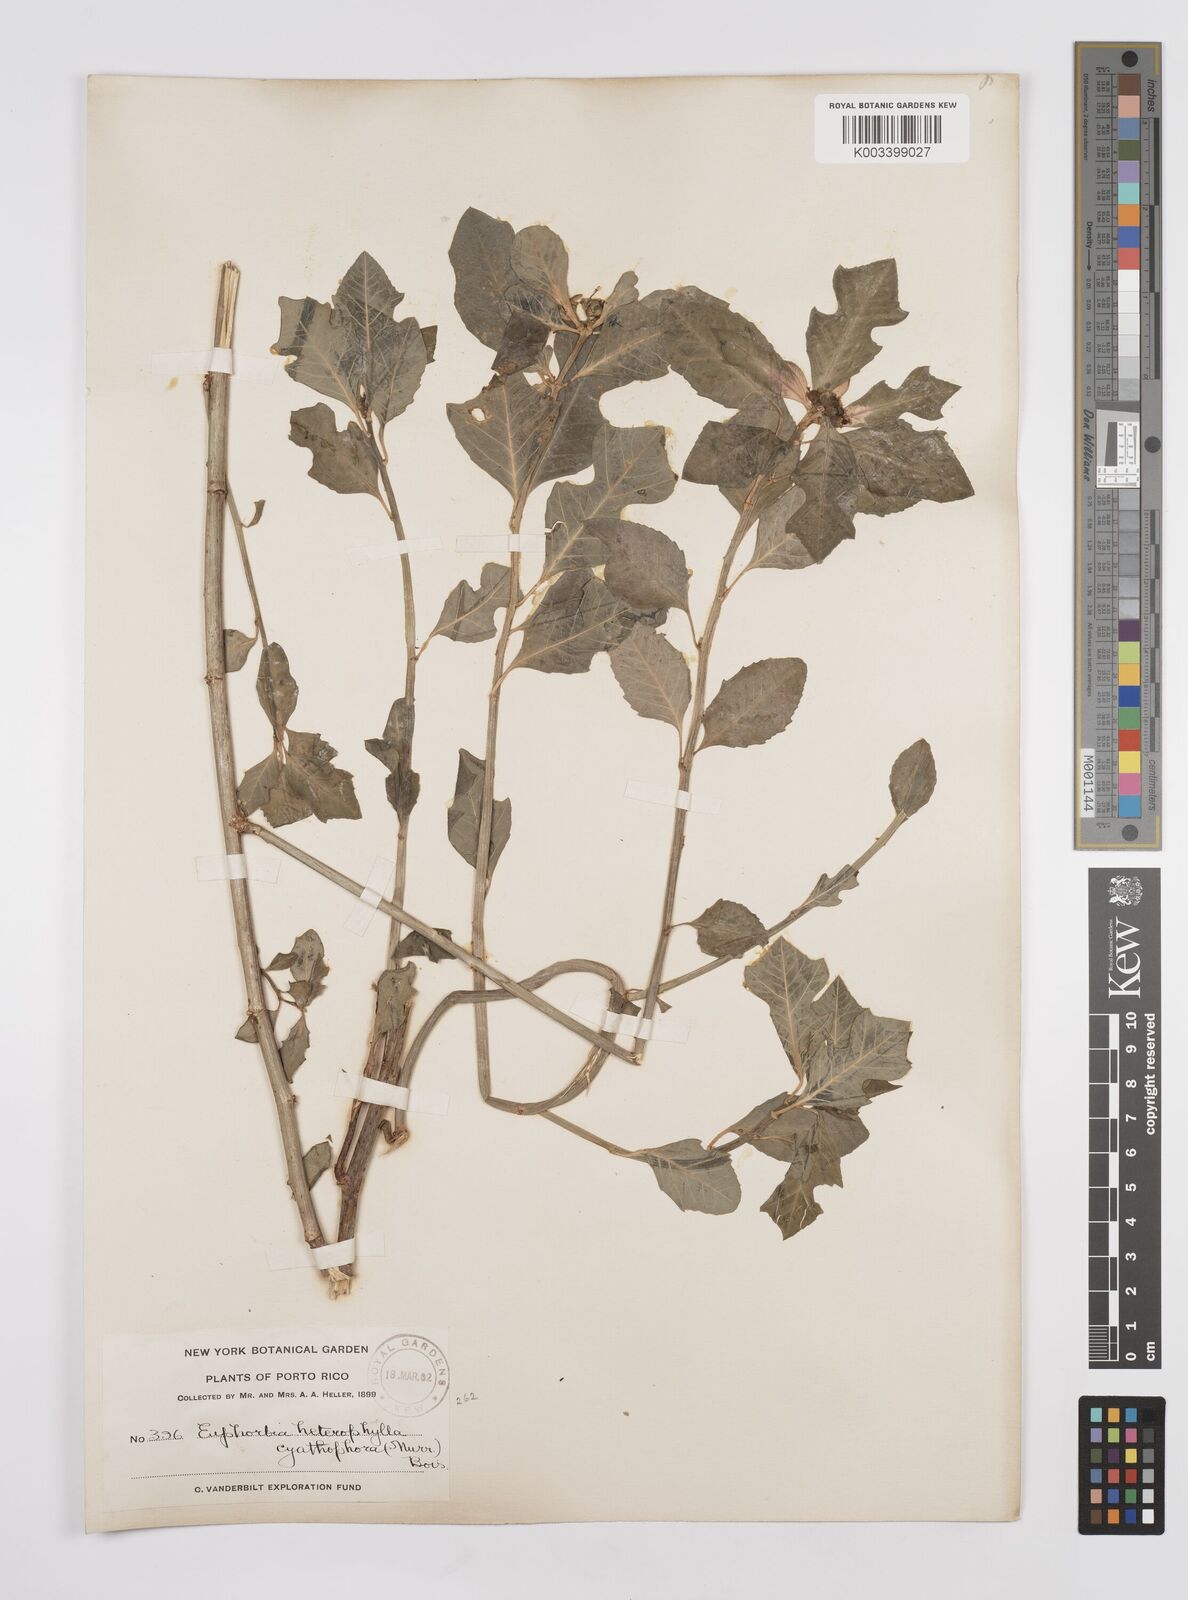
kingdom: Plantae
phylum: Tracheophyta
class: Magnoliopsida
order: Malpighiales
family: Euphorbiaceae
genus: Euphorbia
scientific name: Euphorbia heterophylla
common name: Mexican fireplant
